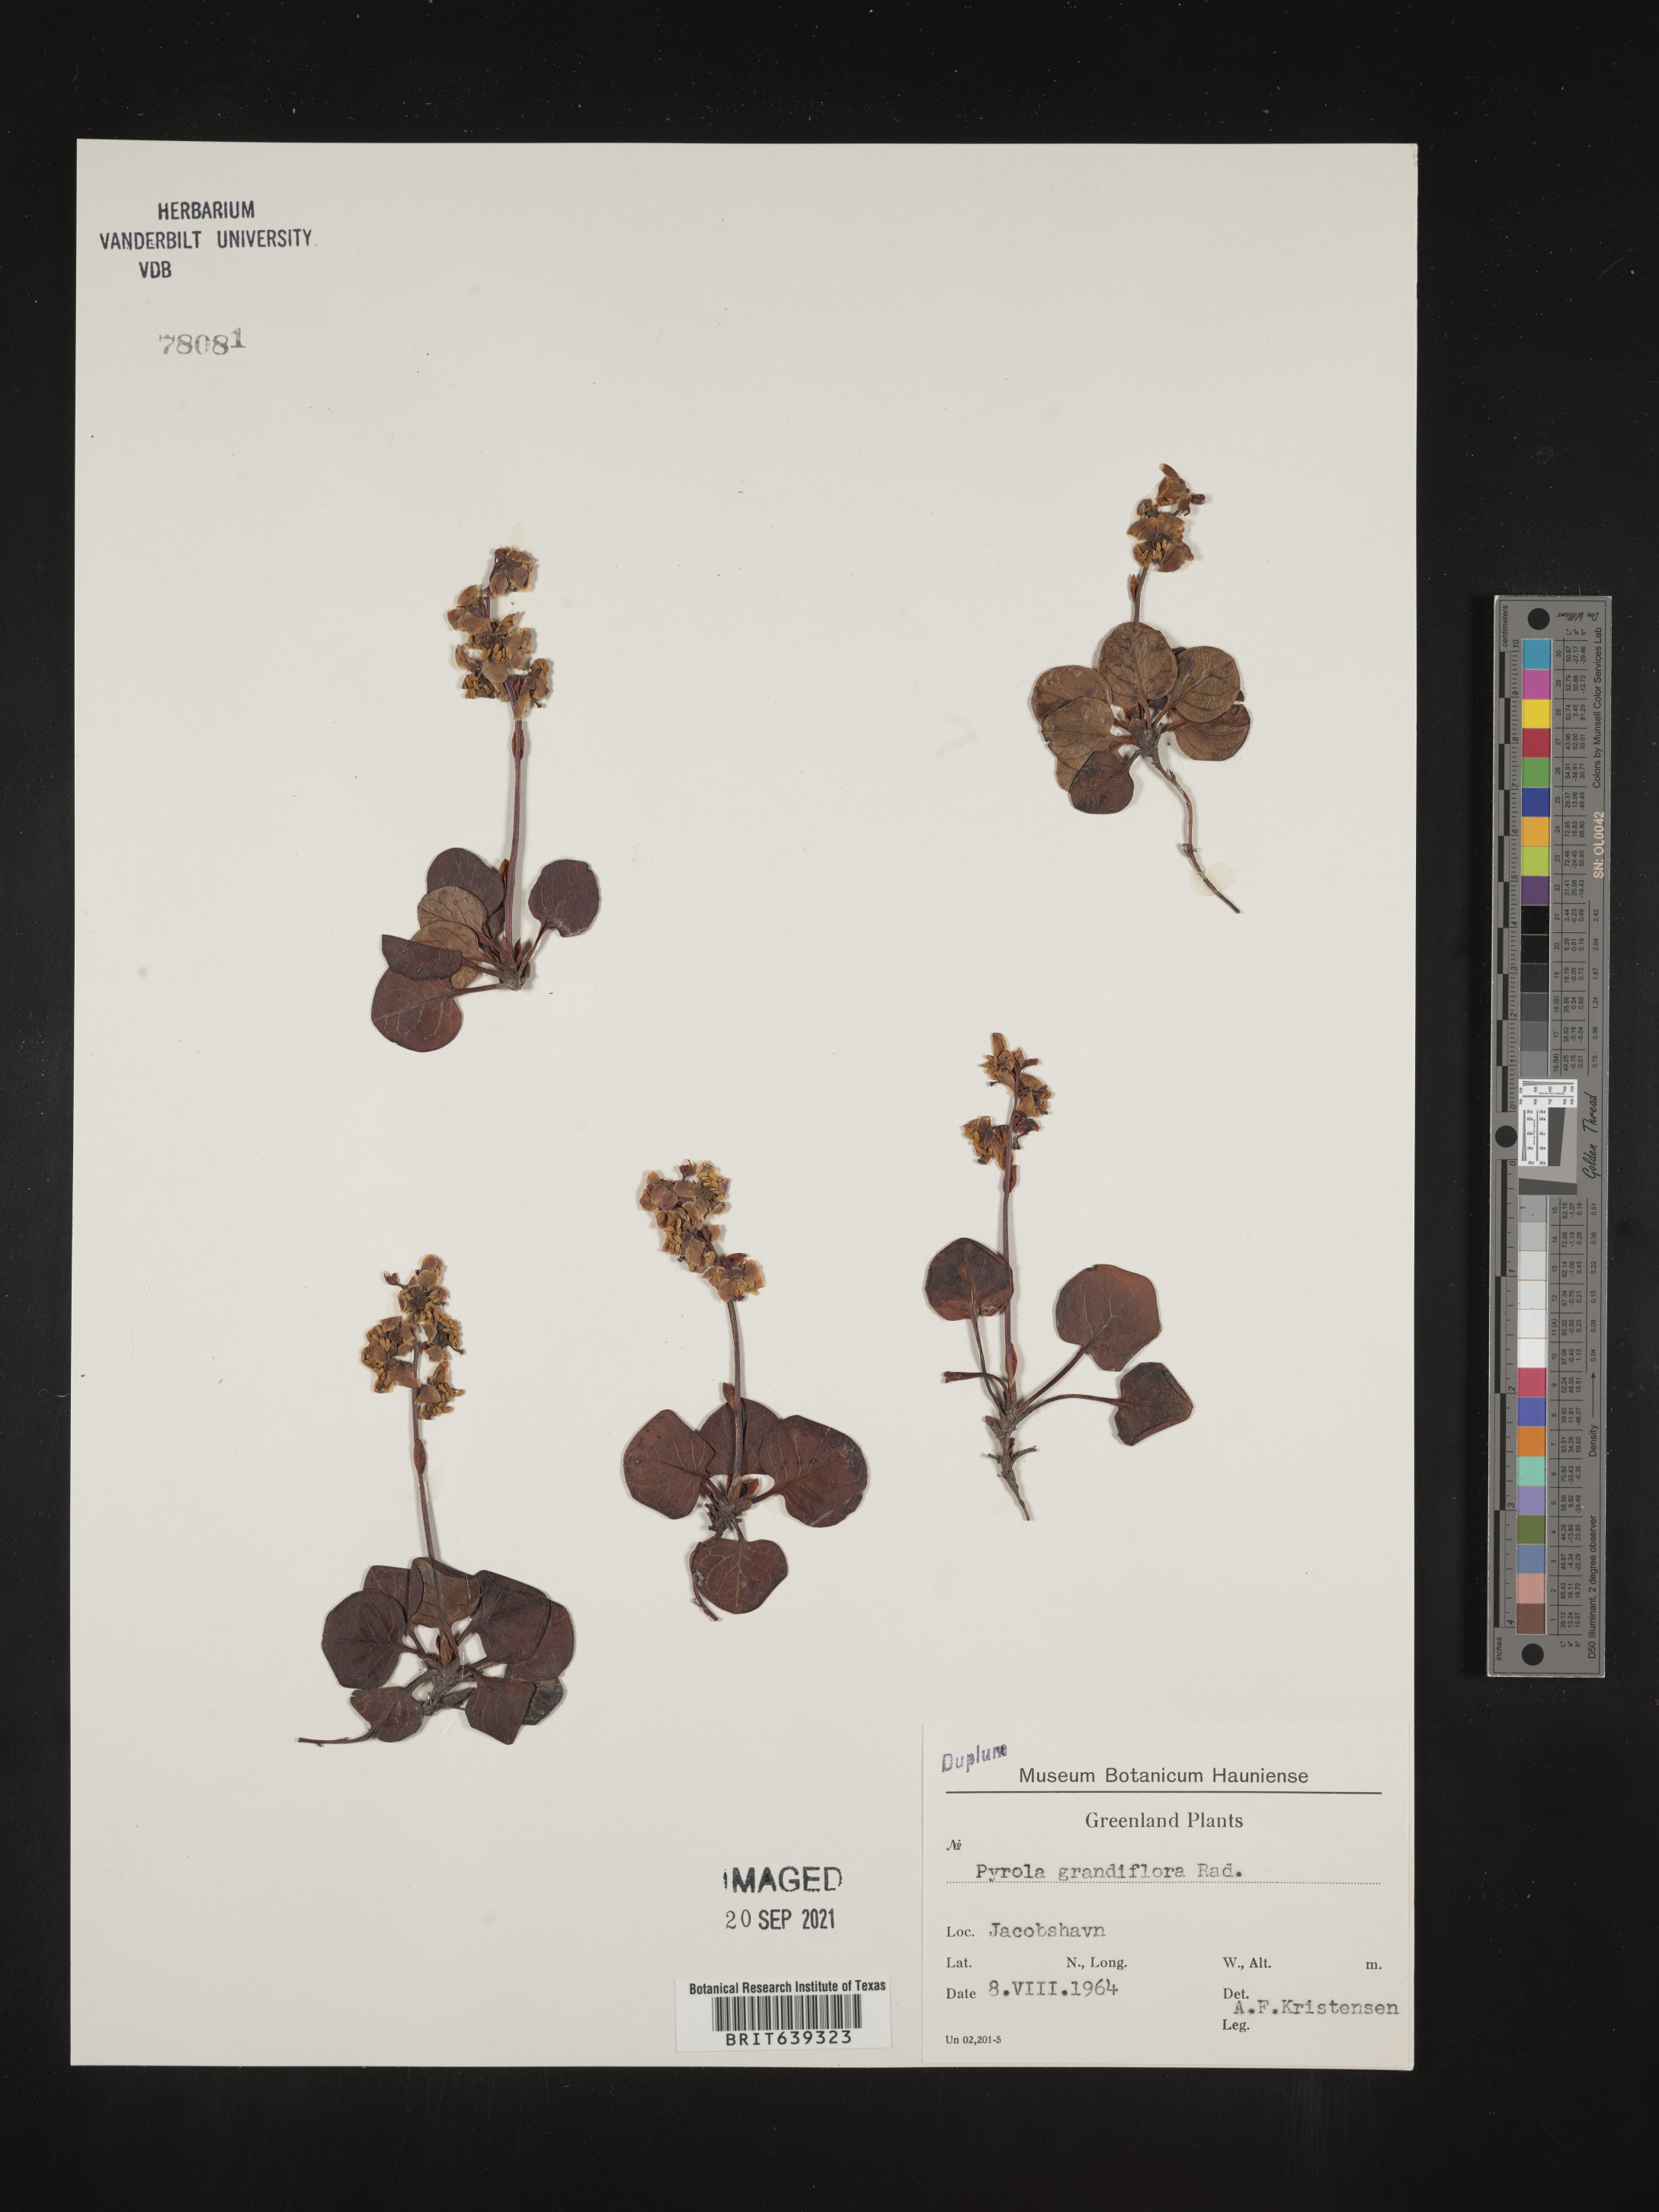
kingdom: Plantae
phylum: Tracheophyta
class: Magnoliopsida
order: Ericales
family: Ericaceae
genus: Pyrola
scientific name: Pyrola
